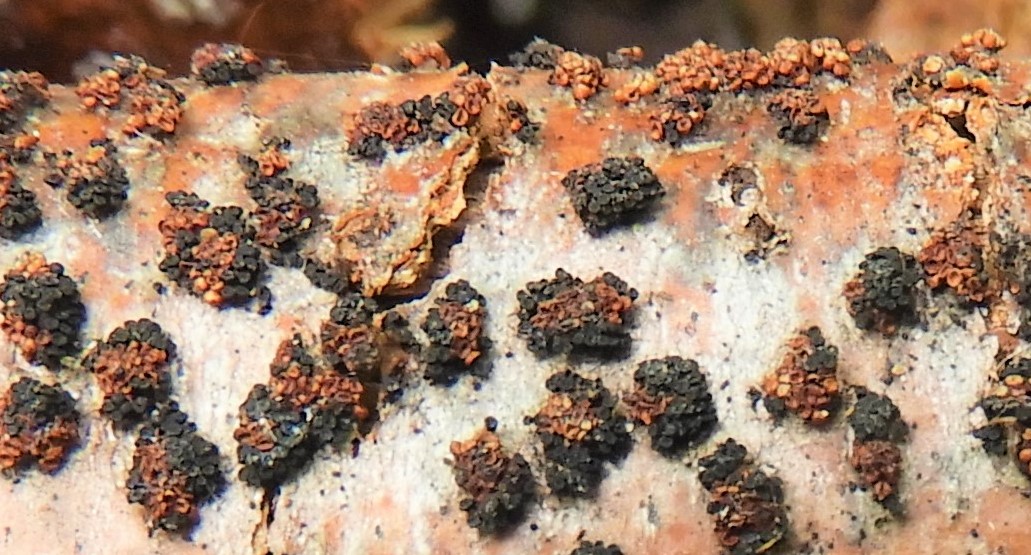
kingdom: Fungi
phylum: Ascomycota
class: Sordariomycetes
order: Hypocreales
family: Nectriaceae
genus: Nectria
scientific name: Nectria
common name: cinnobersvamp
